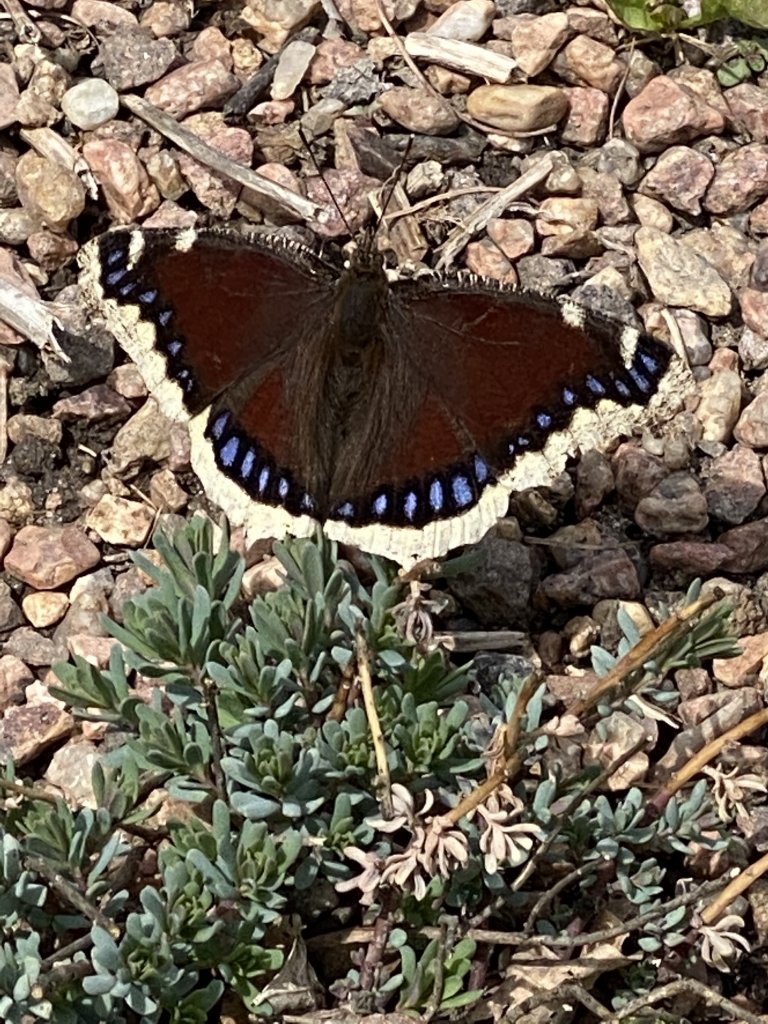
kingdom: Animalia
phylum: Arthropoda
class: Insecta
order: Lepidoptera
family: Nymphalidae
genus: Nymphalis
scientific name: Nymphalis antiopa
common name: Mourning Cloak
